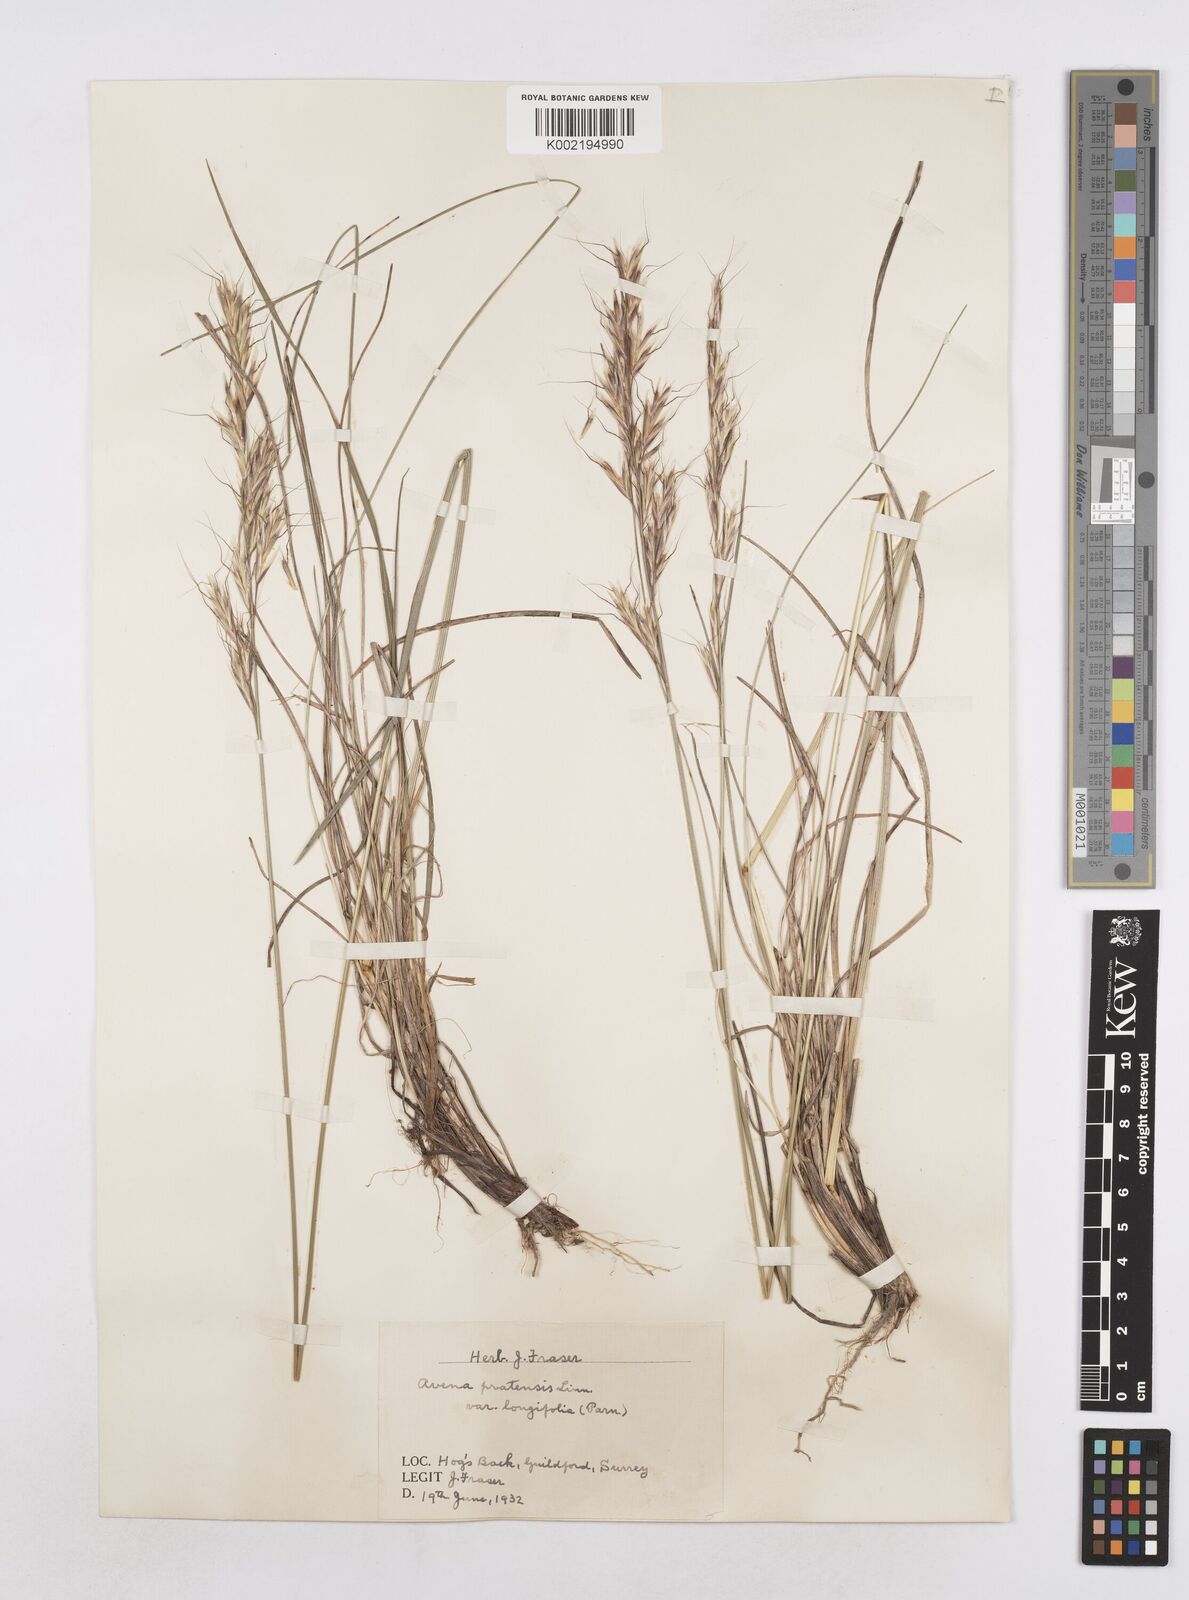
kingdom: Plantae
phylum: Tracheophyta
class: Liliopsida
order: Poales
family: Poaceae
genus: Helictochloa
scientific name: Helictochloa pratensis
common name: Meadow oat grass
